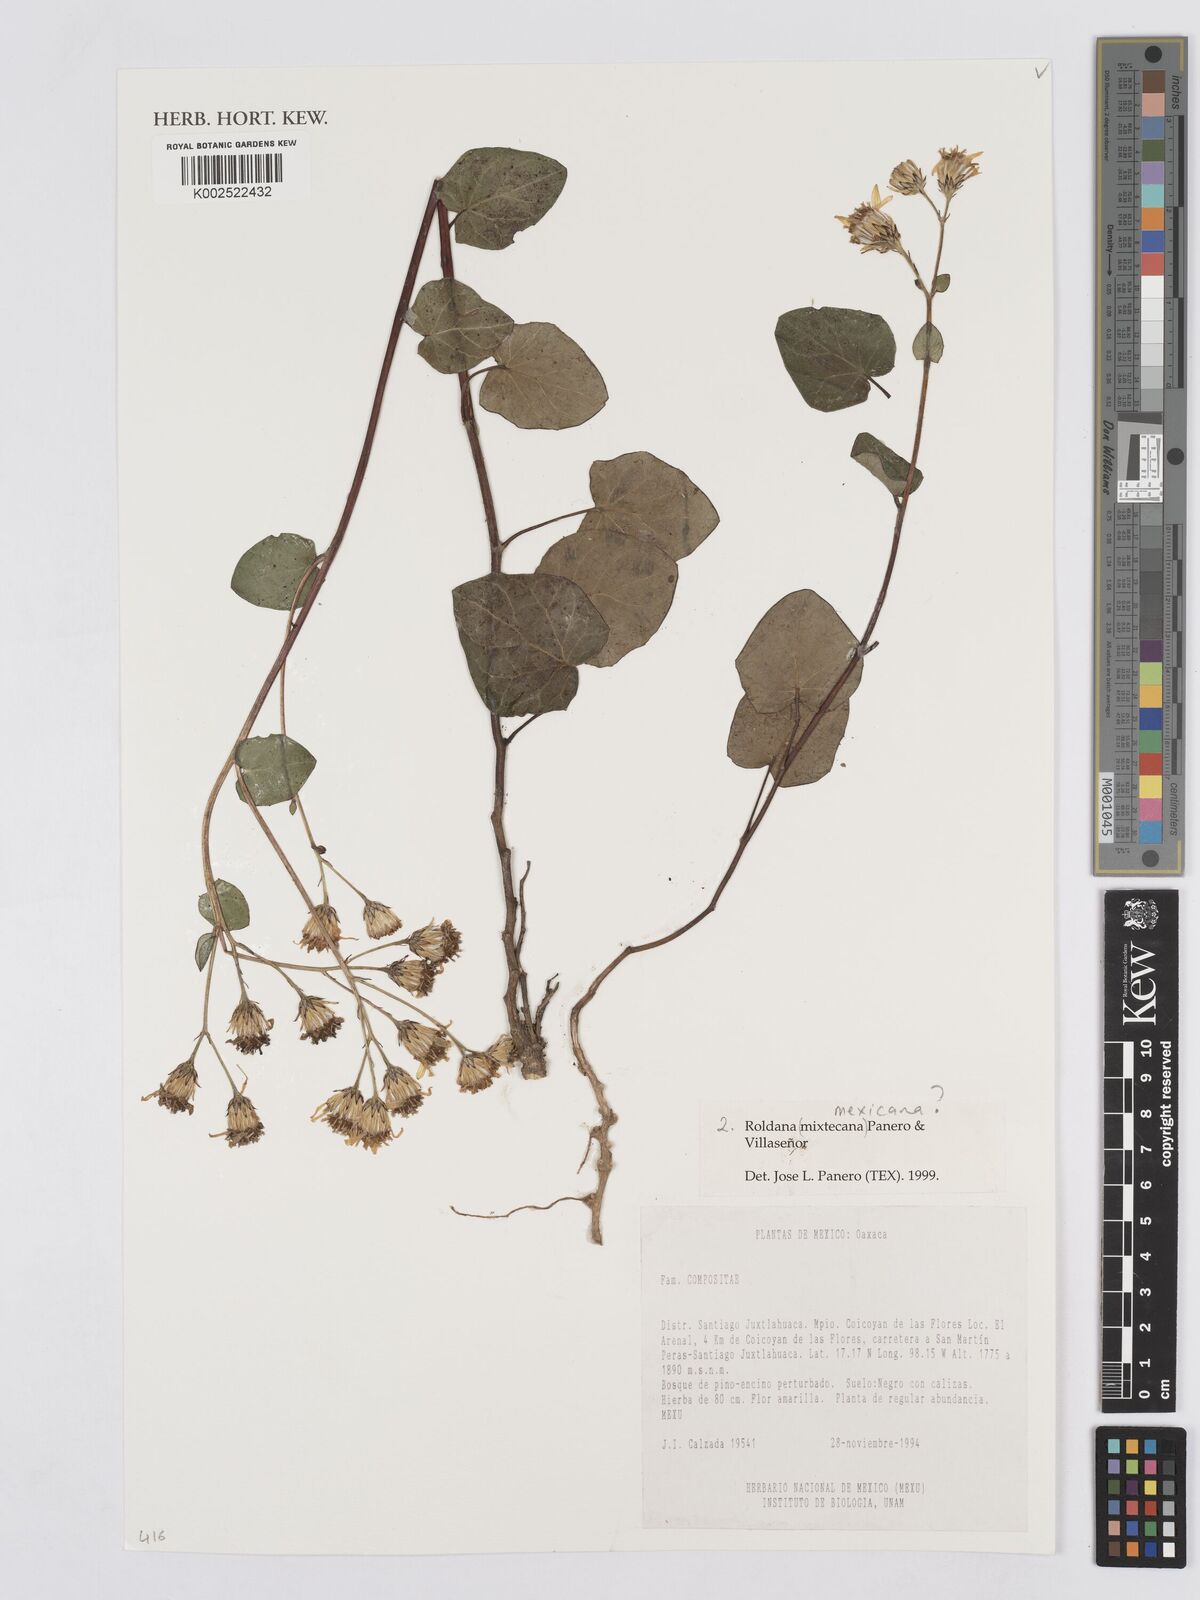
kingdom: Plantae
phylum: Tracheophyta
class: Magnoliopsida
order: Asterales
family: Asteraceae
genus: Roldana
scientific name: Roldana mexicana
